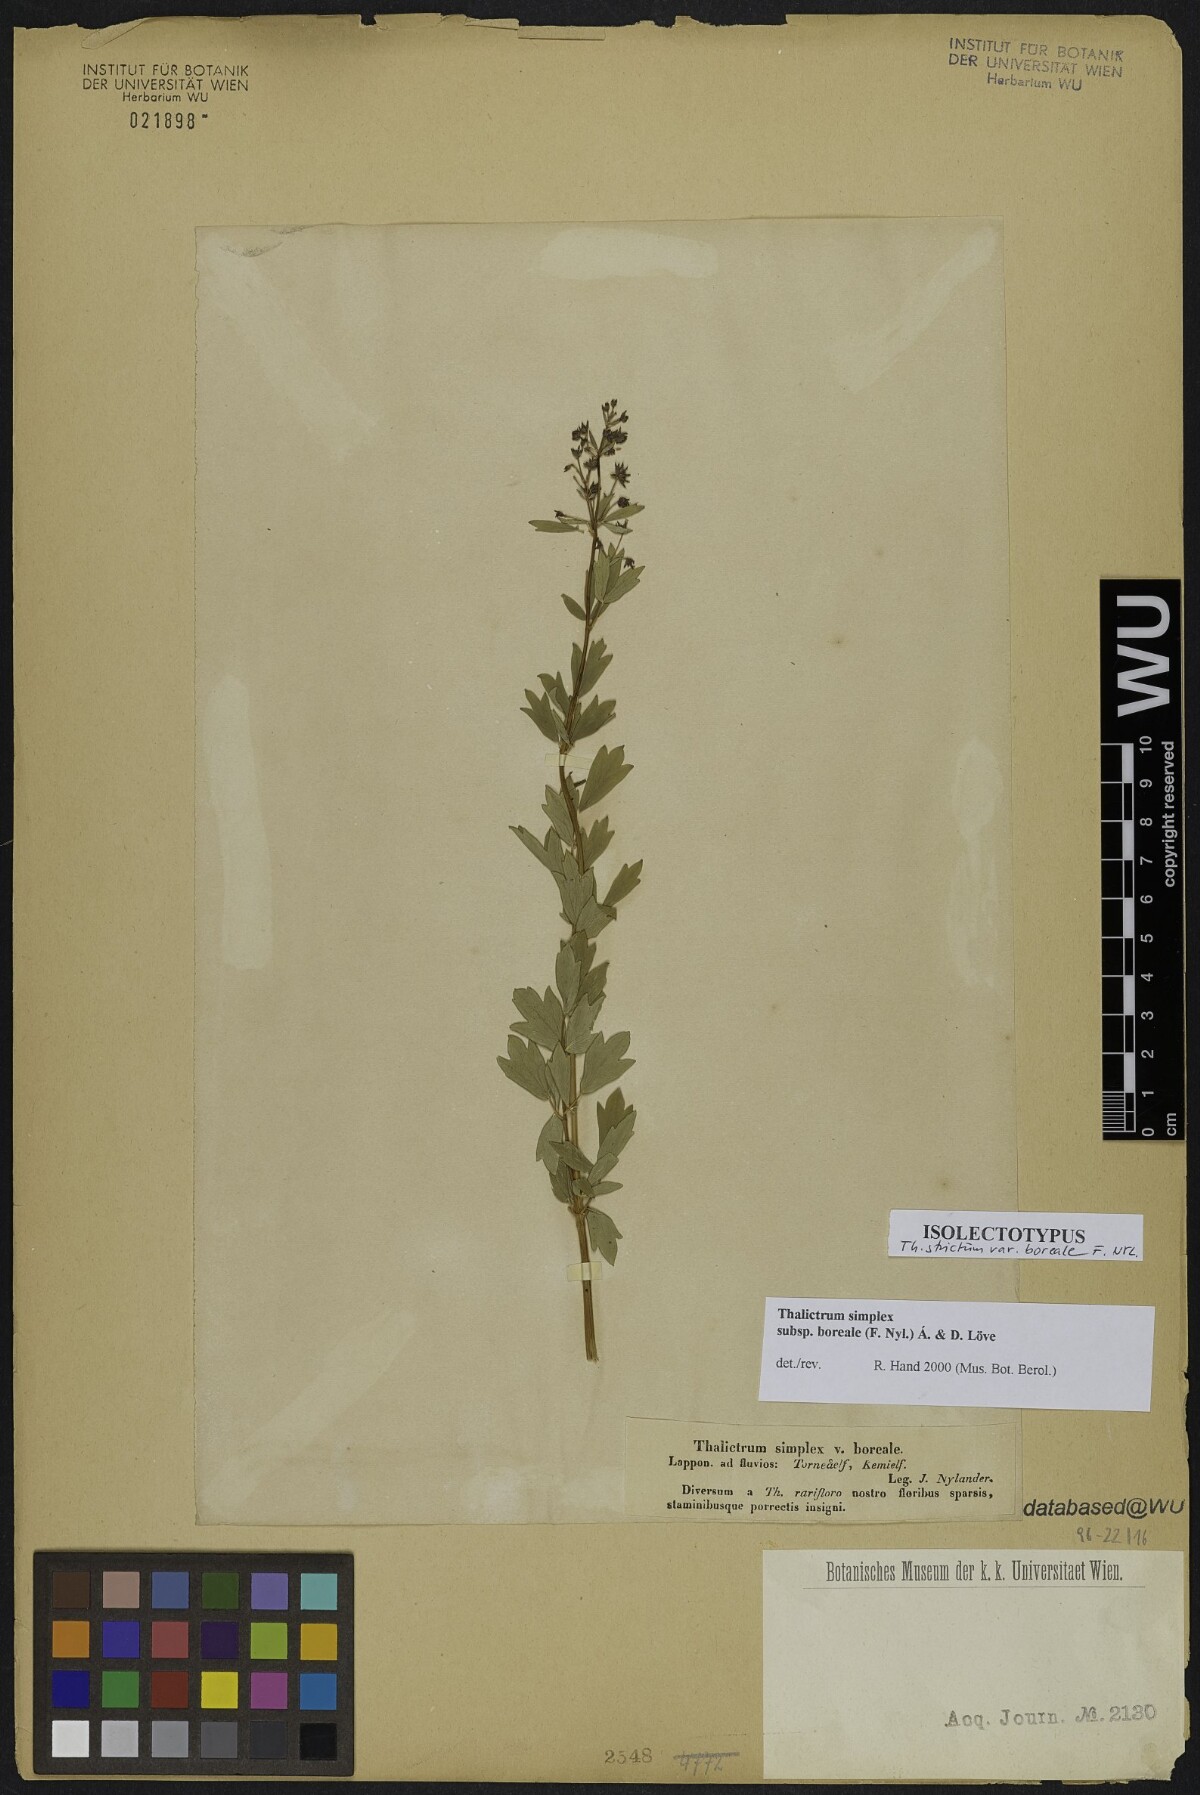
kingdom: Plantae
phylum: Tracheophyta
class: Magnoliopsida
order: Ranunculales
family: Ranunculaceae
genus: Thalictrum
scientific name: Thalictrum simplex
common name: Small meadow-rue
